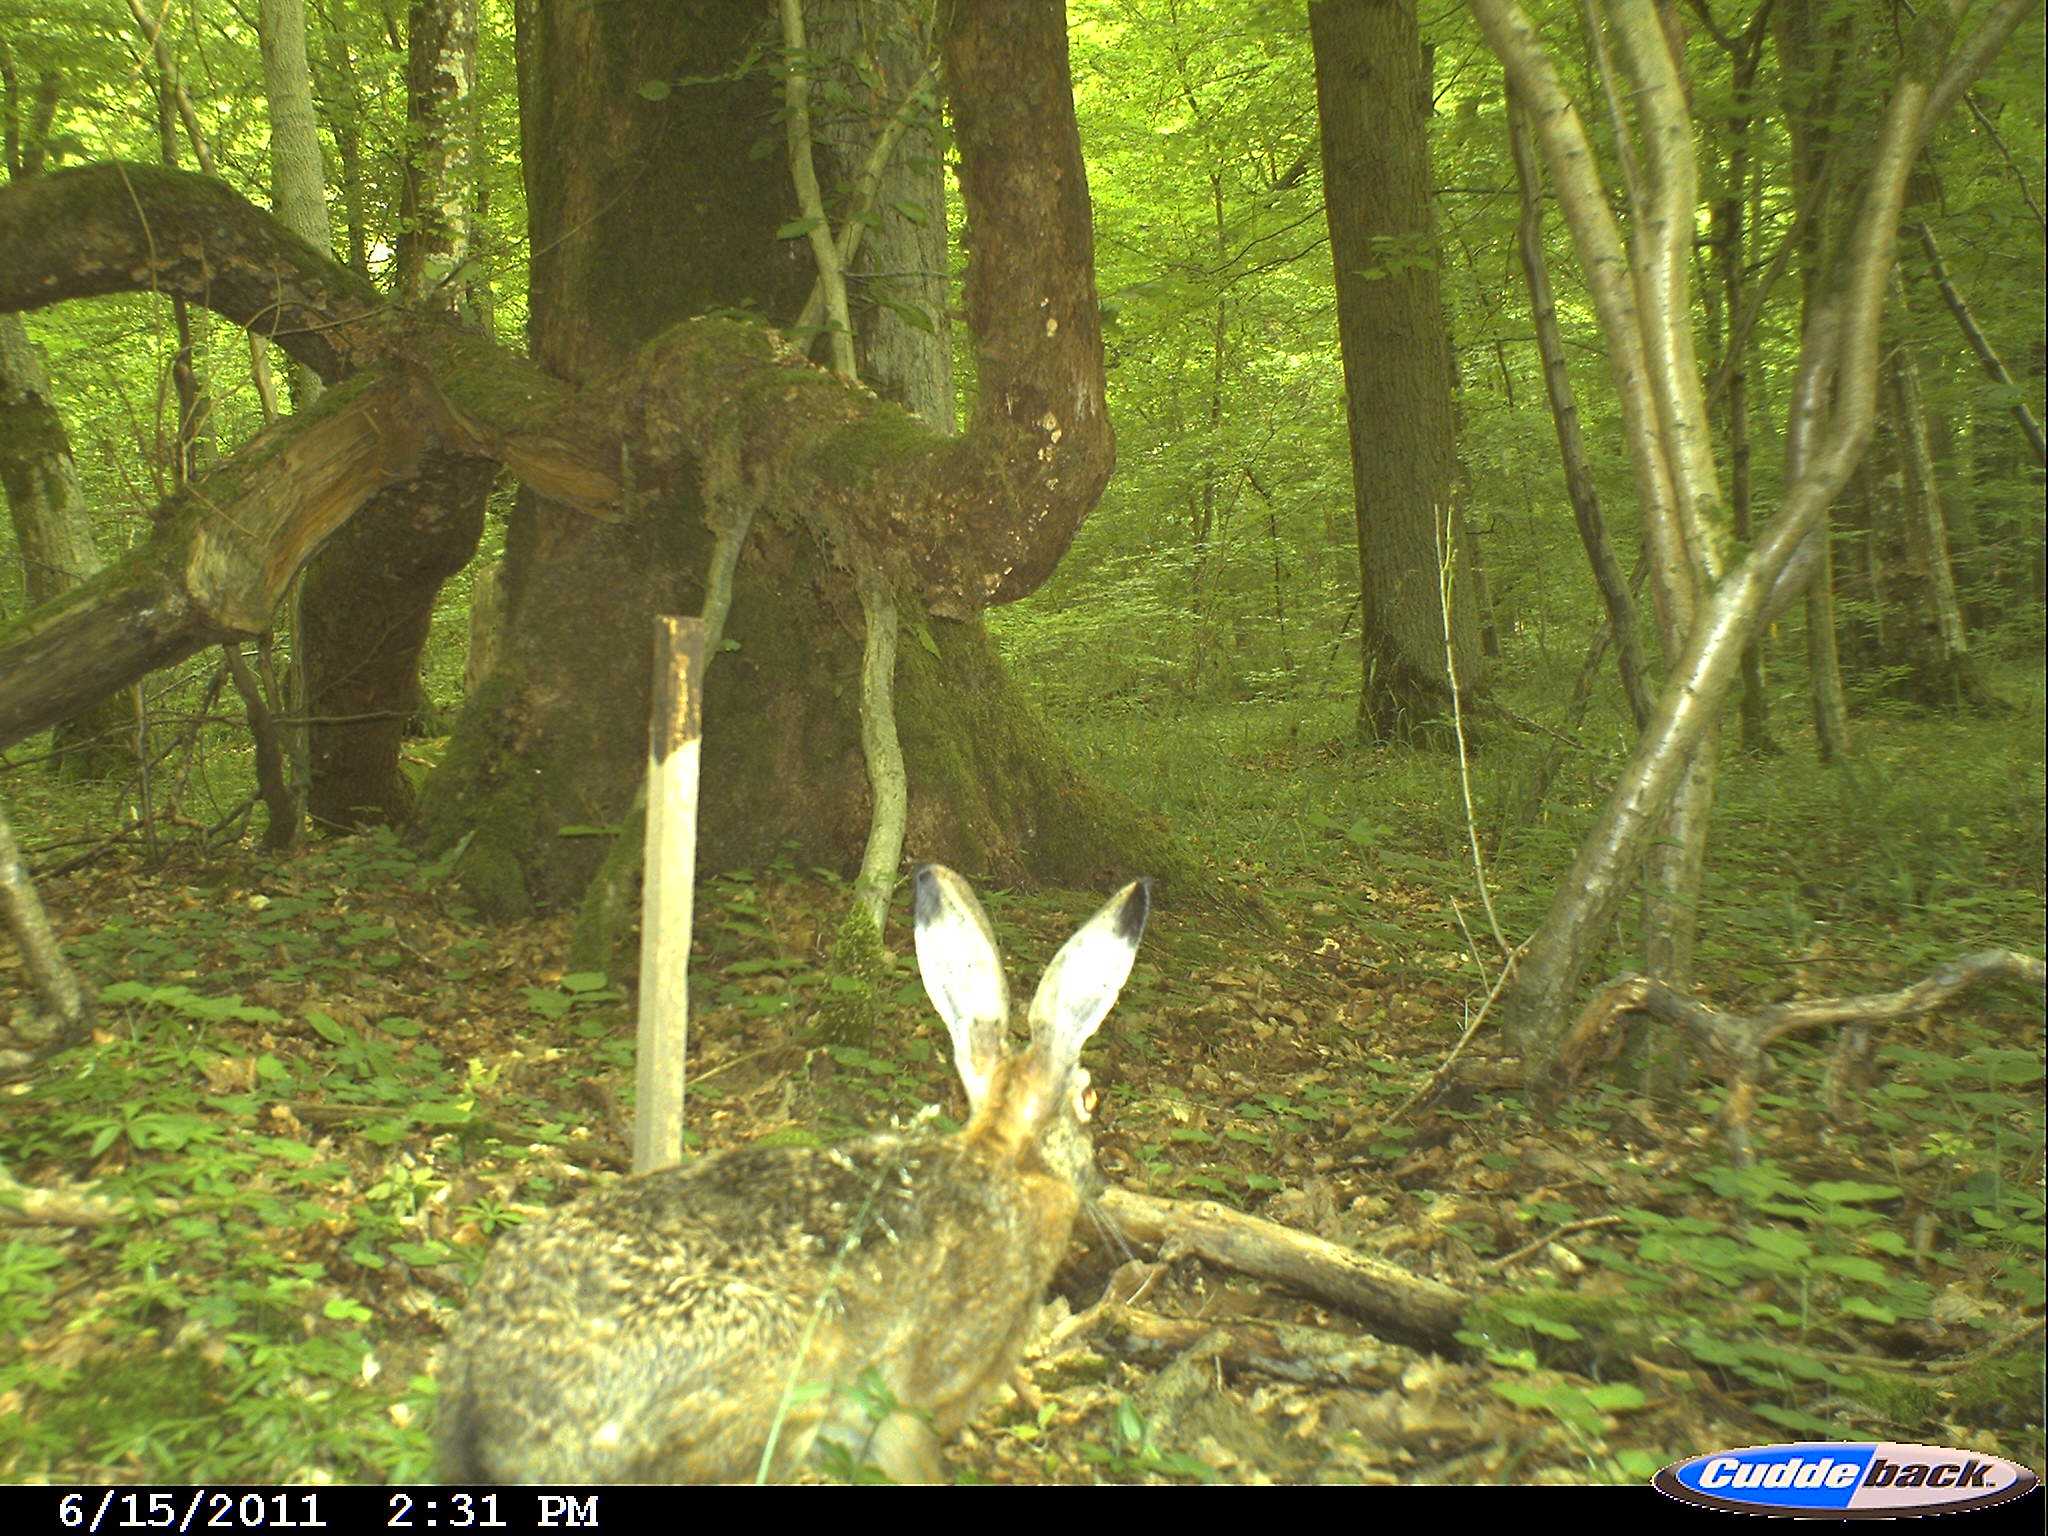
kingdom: Animalia
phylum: Chordata
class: Mammalia
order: Lagomorpha
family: Leporidae
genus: Lepus
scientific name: Lepus europaeus
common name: European hare
